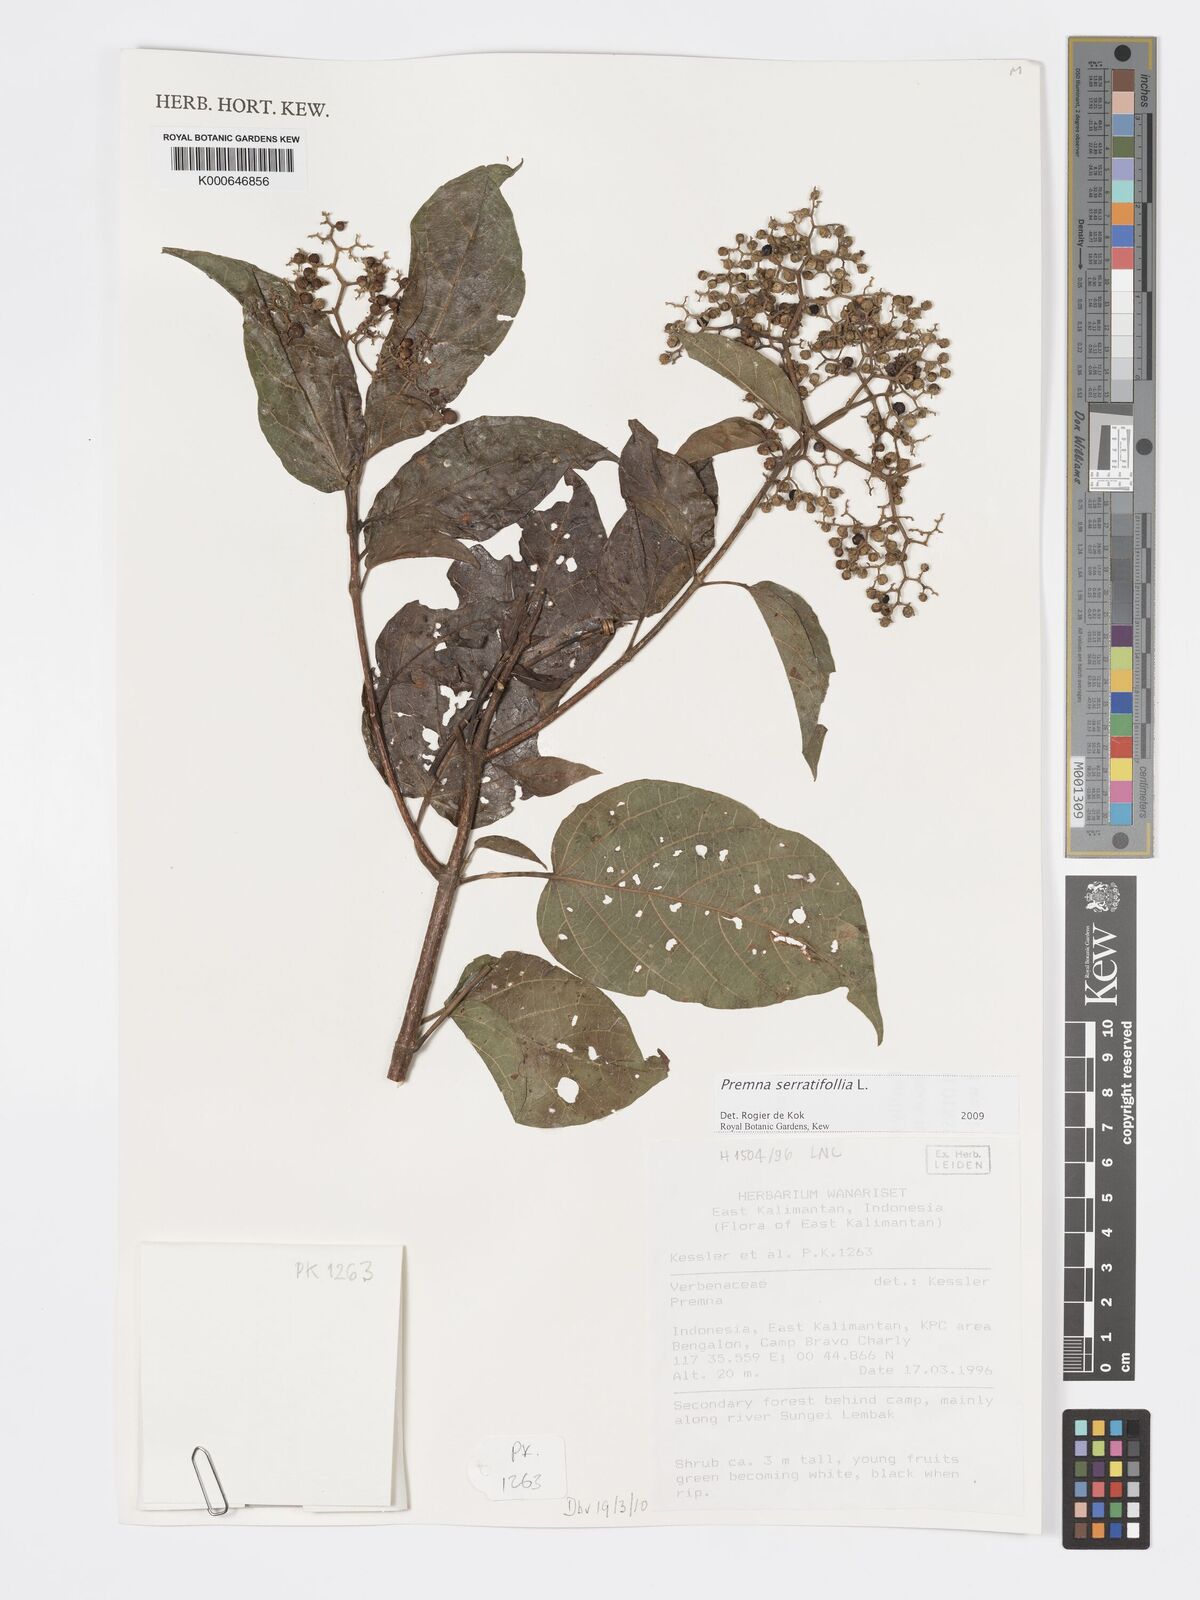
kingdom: Plantae
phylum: Tracheophyta
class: Magnoliopsida
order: Lamiales
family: Lamiaceae
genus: Premna
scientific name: Premna serratifolia
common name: Bastard guelder
